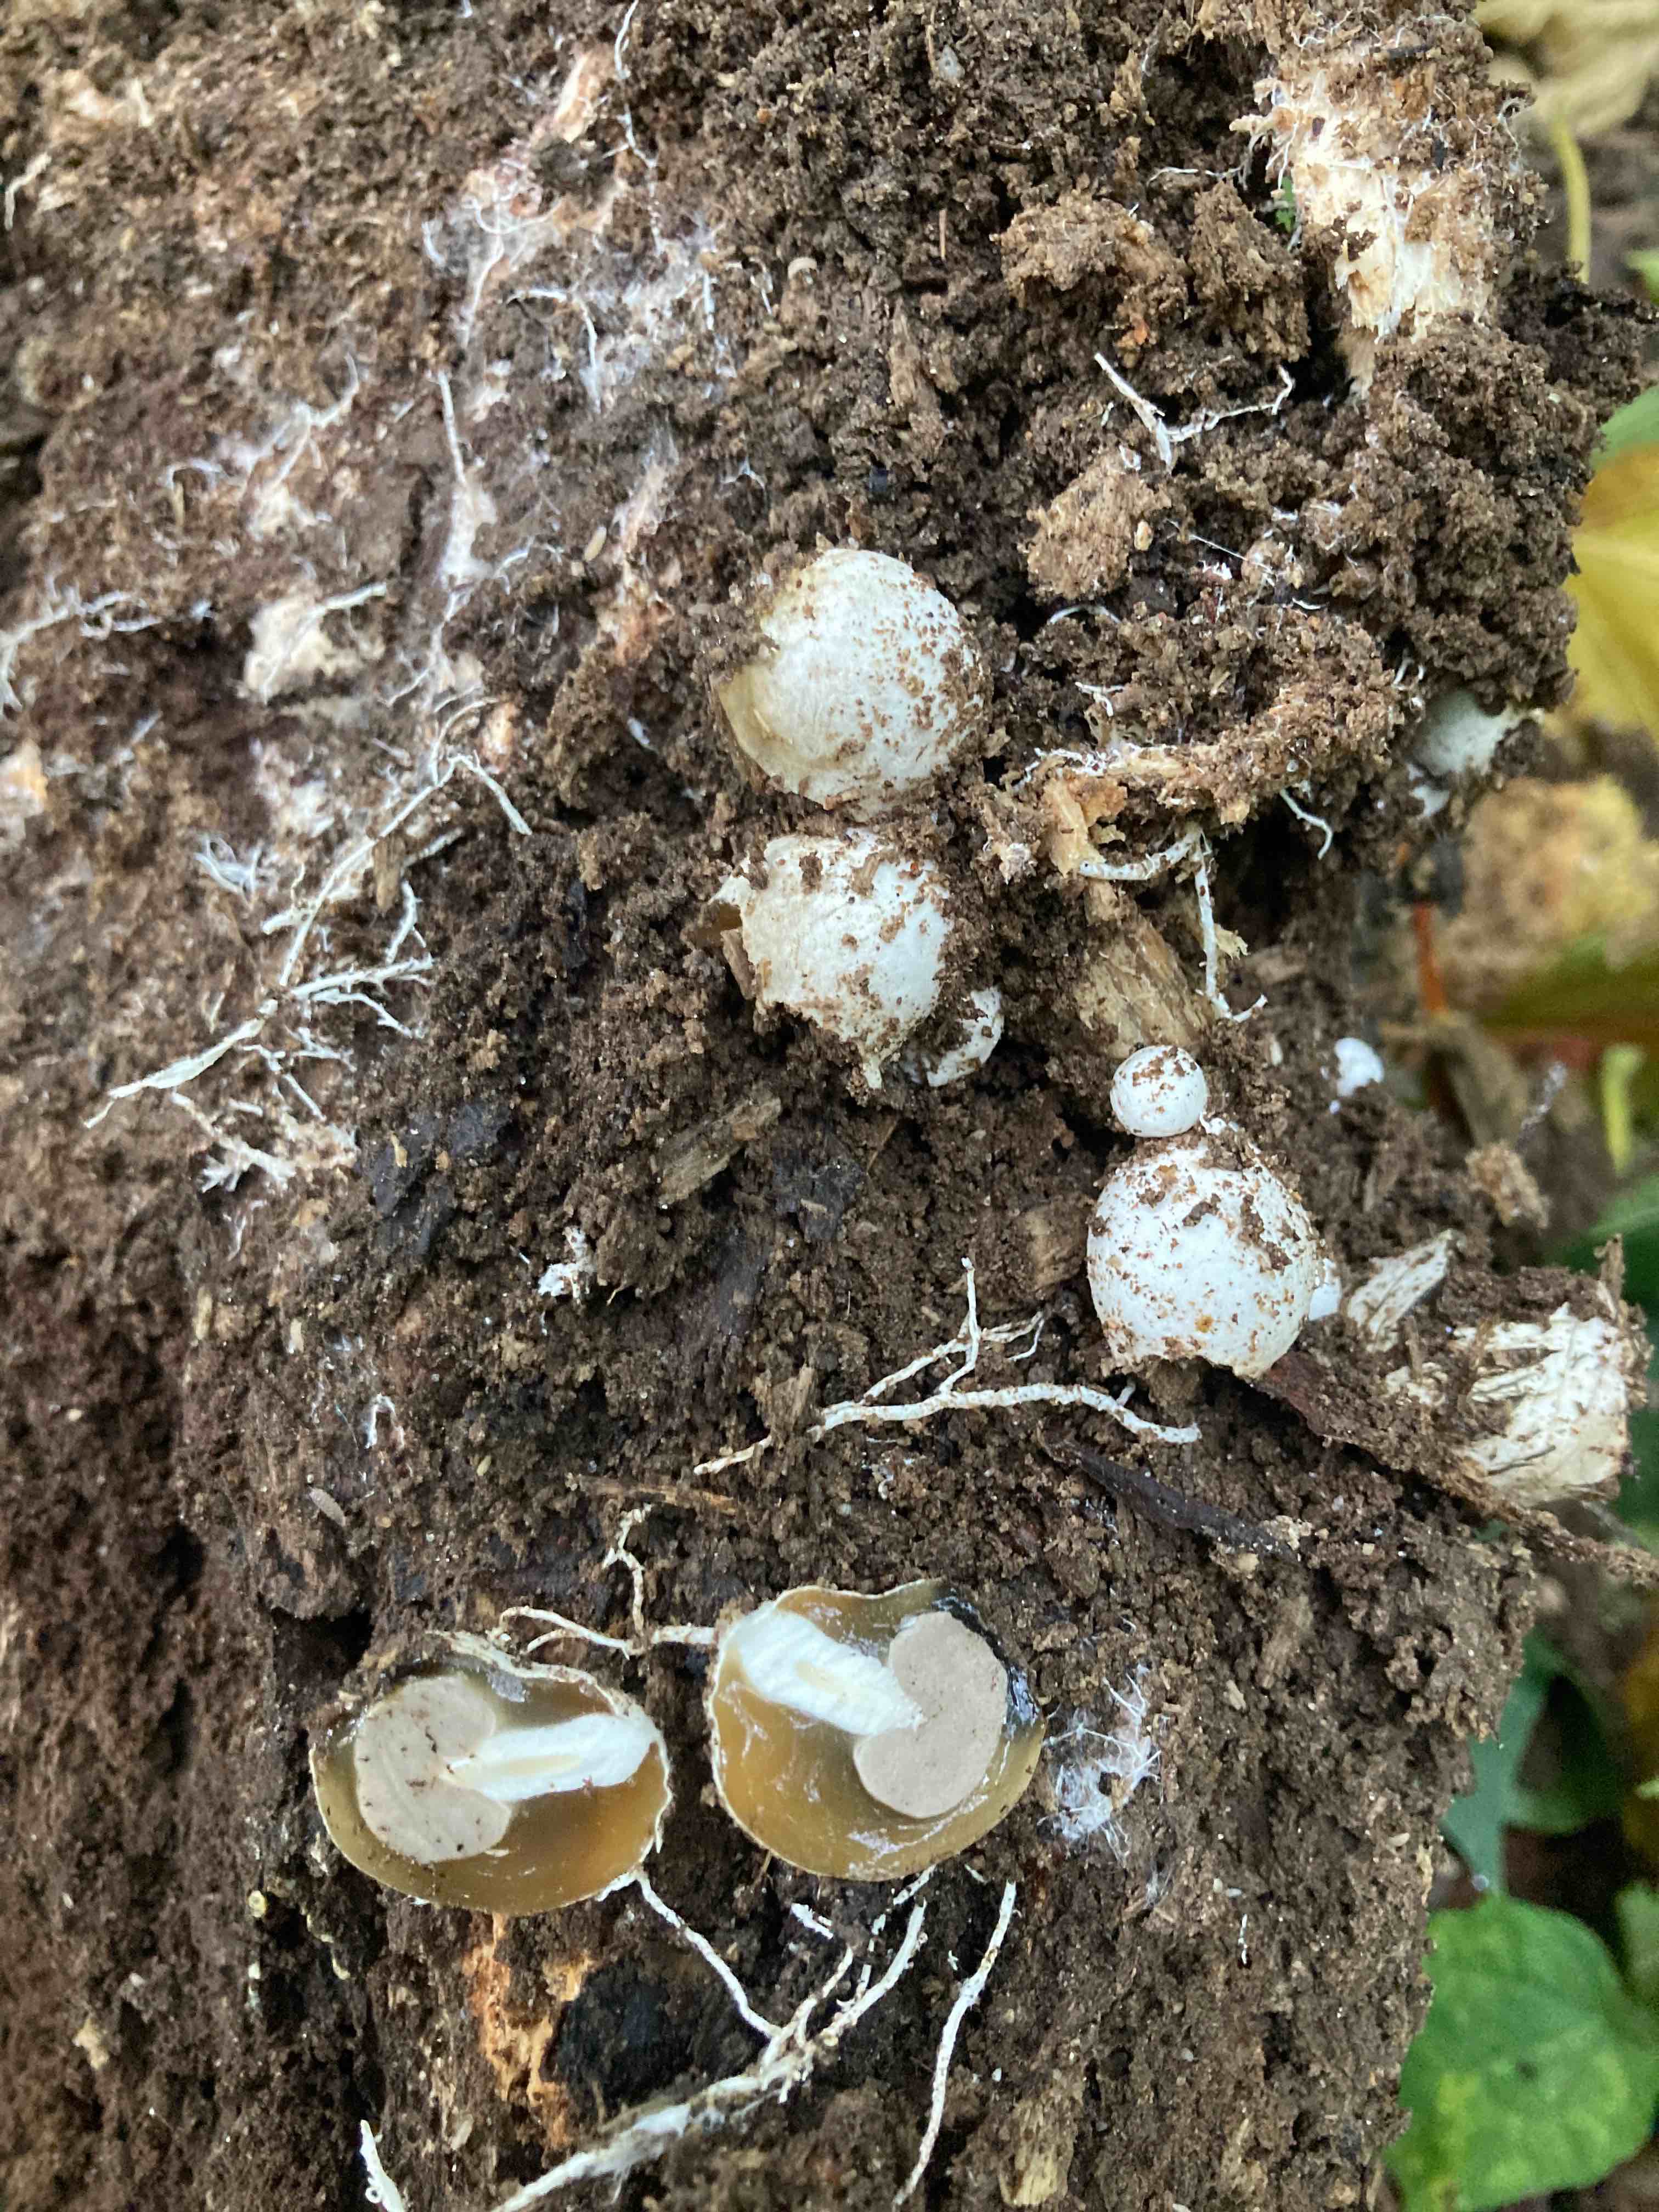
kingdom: Fungi
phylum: Basidiomycota
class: Agaricomycetes
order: Phallales
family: Phallaceae
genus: Phallus
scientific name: Phallus impudicus
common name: almindelig stinksvamp
